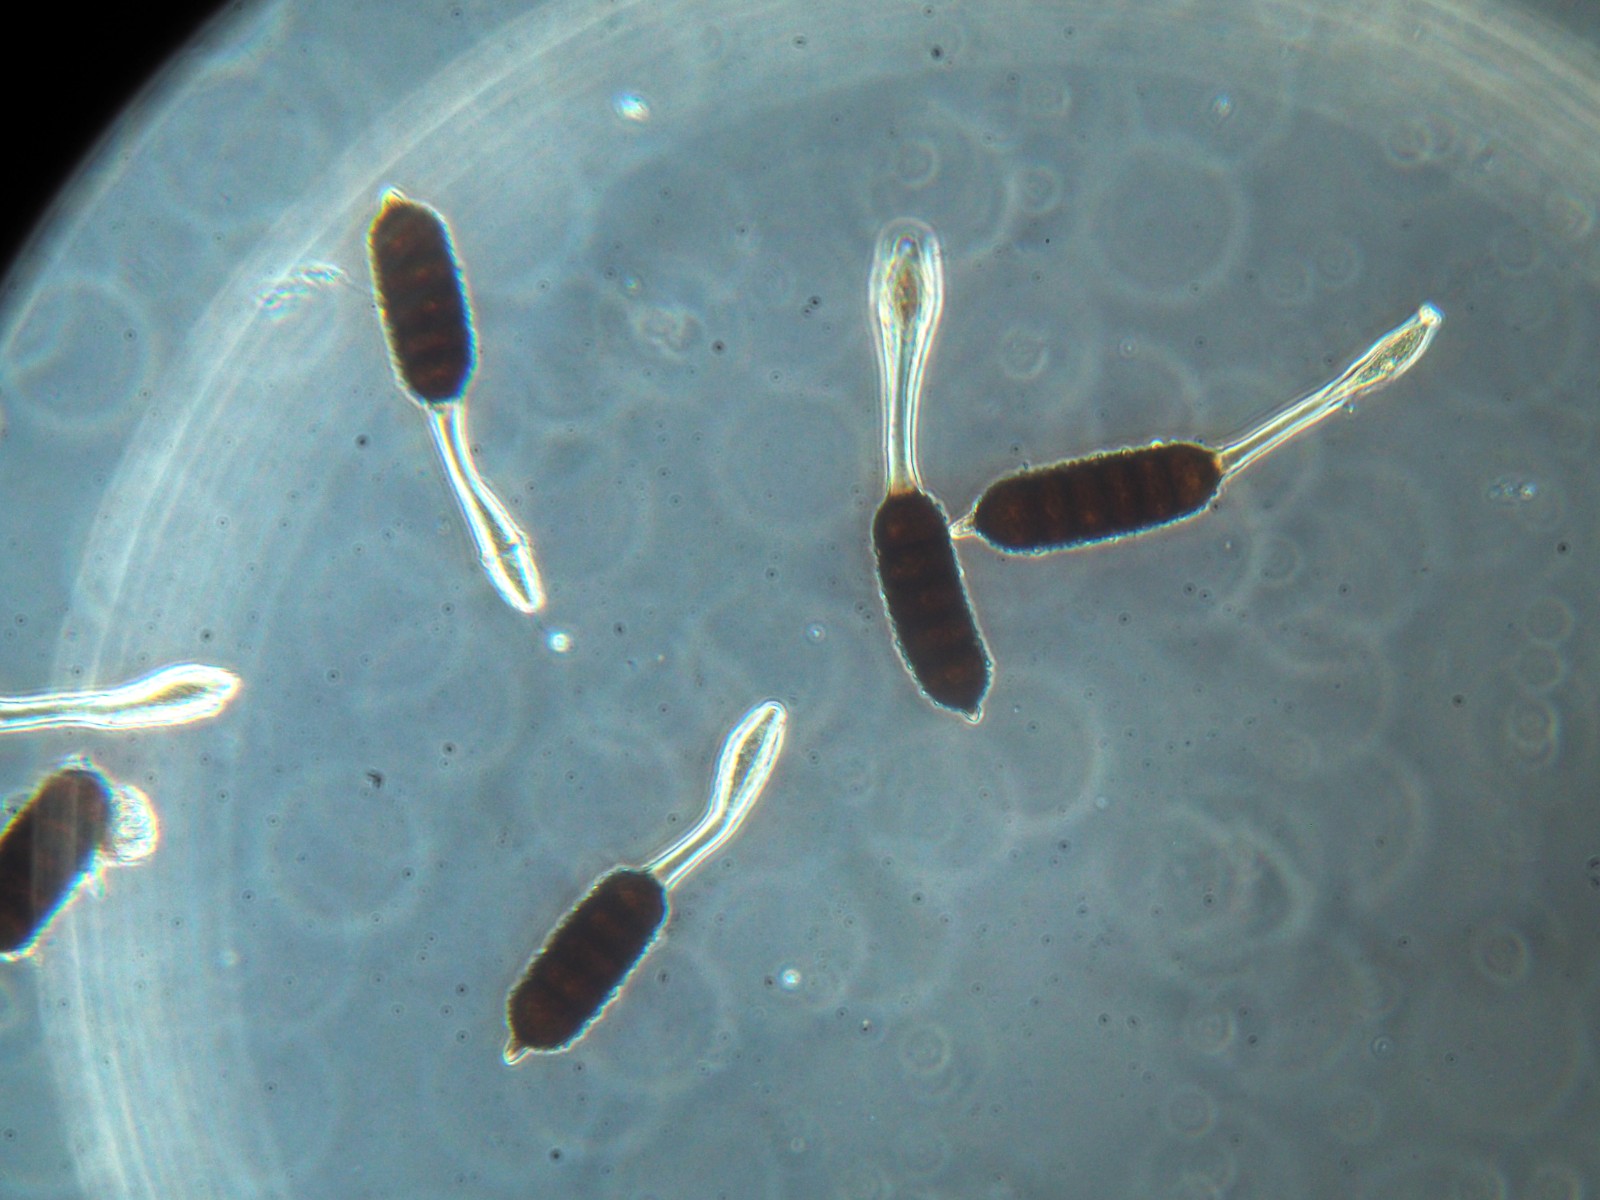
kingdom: Fungi
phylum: Basidiomycota
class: Pucciniomycetes
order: Pucciniales
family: Phragmidiaceae
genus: Phragmidium
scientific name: Phragmidium bulbosum
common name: brombær-flercellerust
